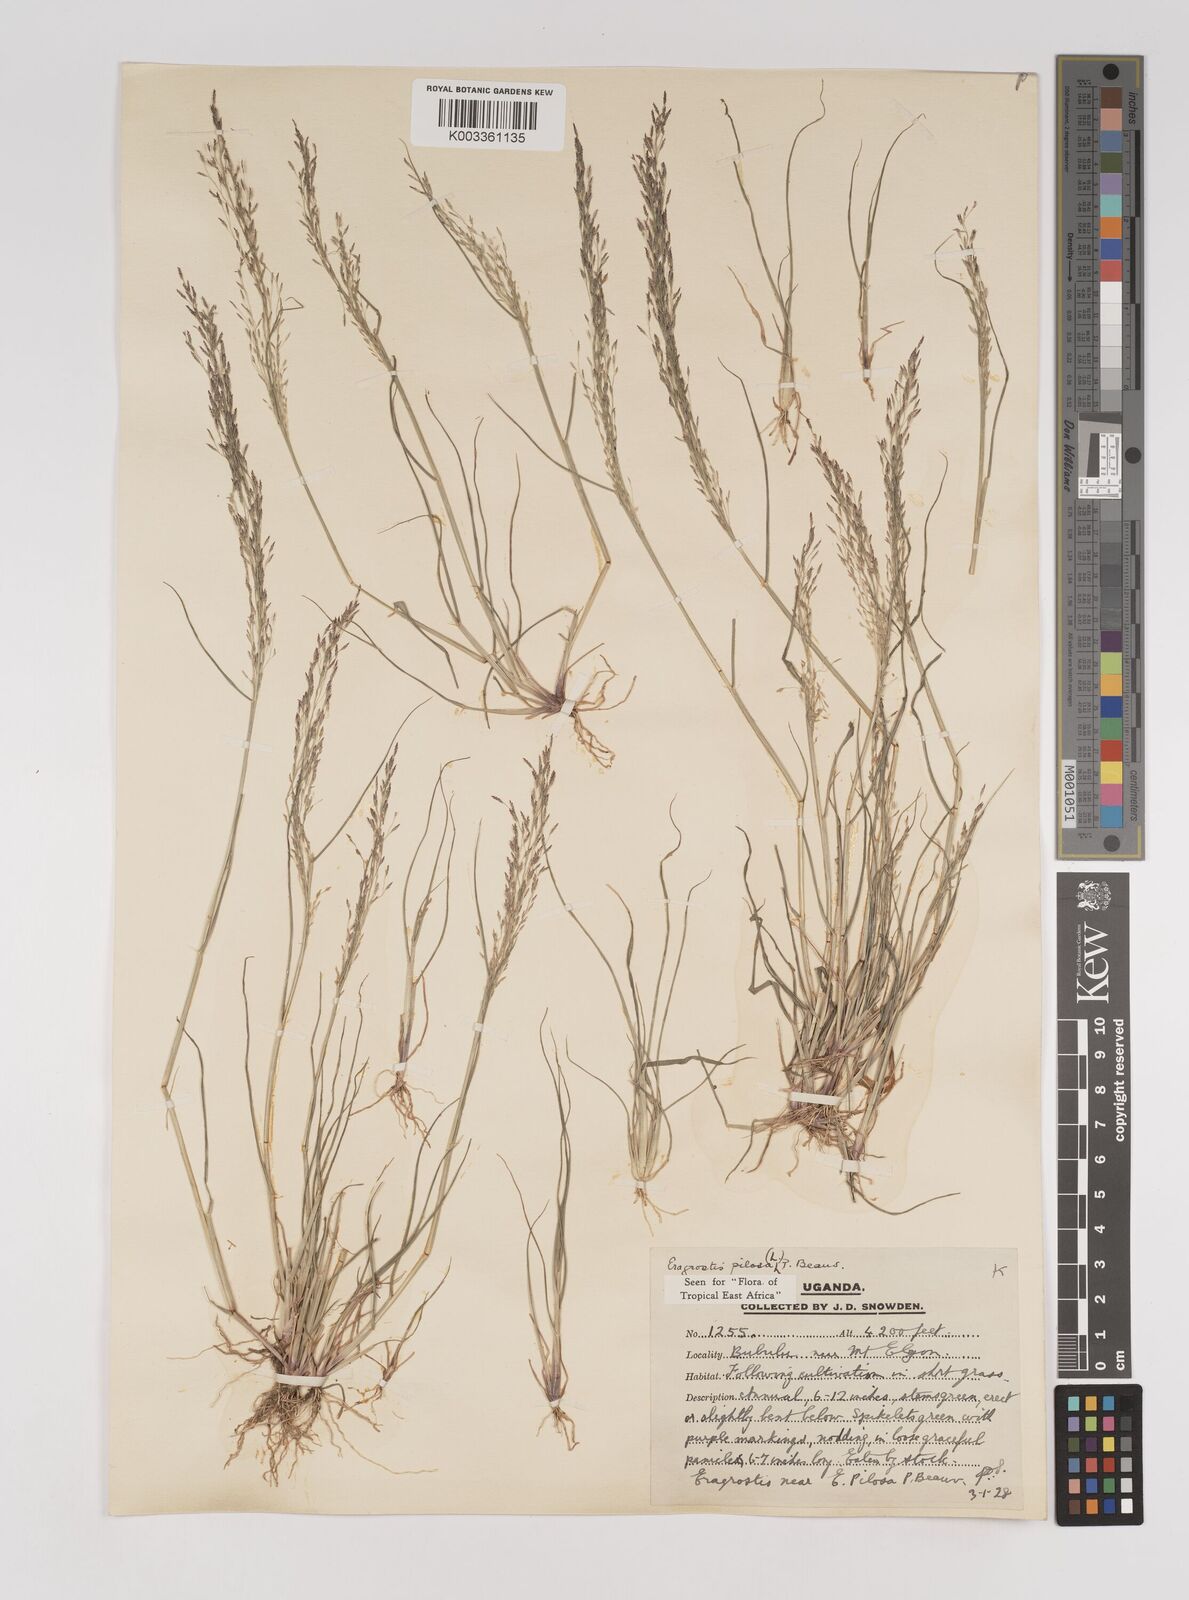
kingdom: Plantae
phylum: Tracheophyta
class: Liliopsida
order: Poales
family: Poaceae
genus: Eragrostis
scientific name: Eragrostis pilosa
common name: Indian lovegrass
